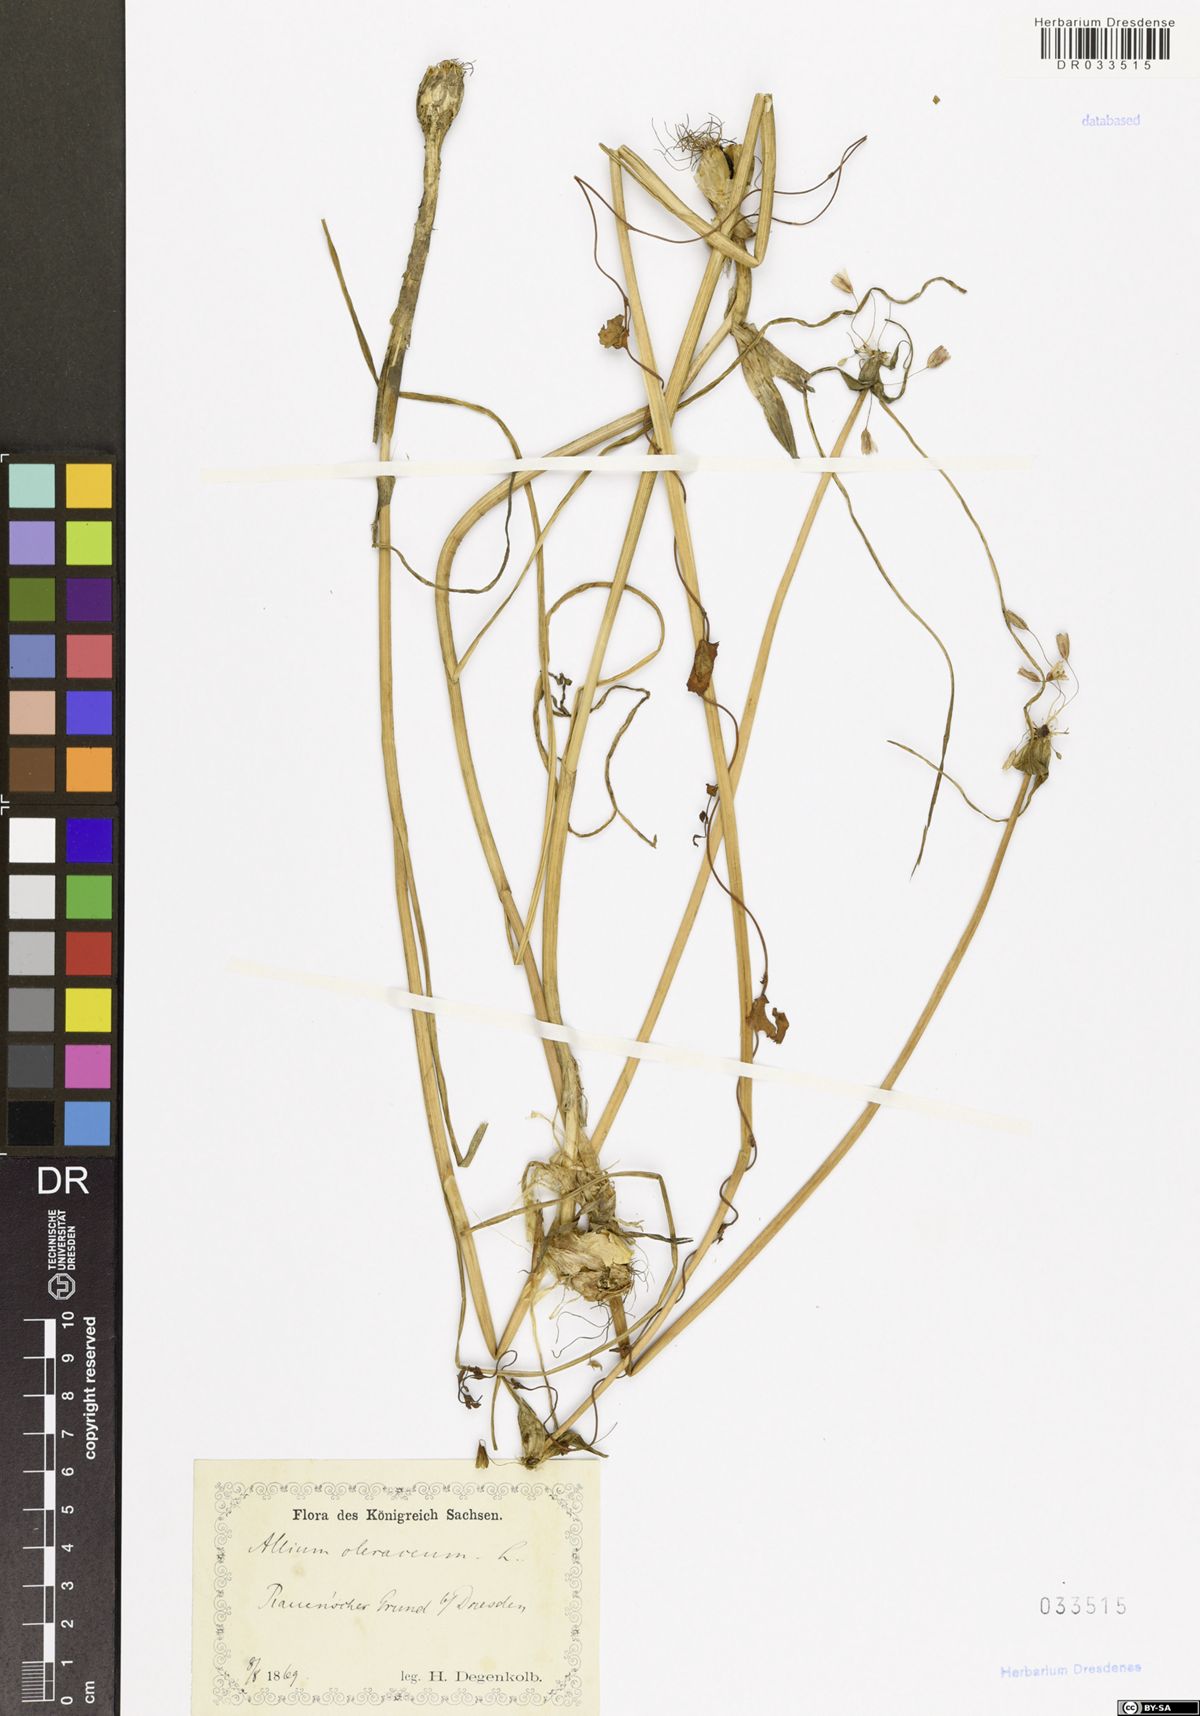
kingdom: Plantae
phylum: Tracheophyta
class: Liliopsida
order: Asparagales
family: Amaryllidaceae
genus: Allium
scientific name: Allium oleraceum
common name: Field garlic
